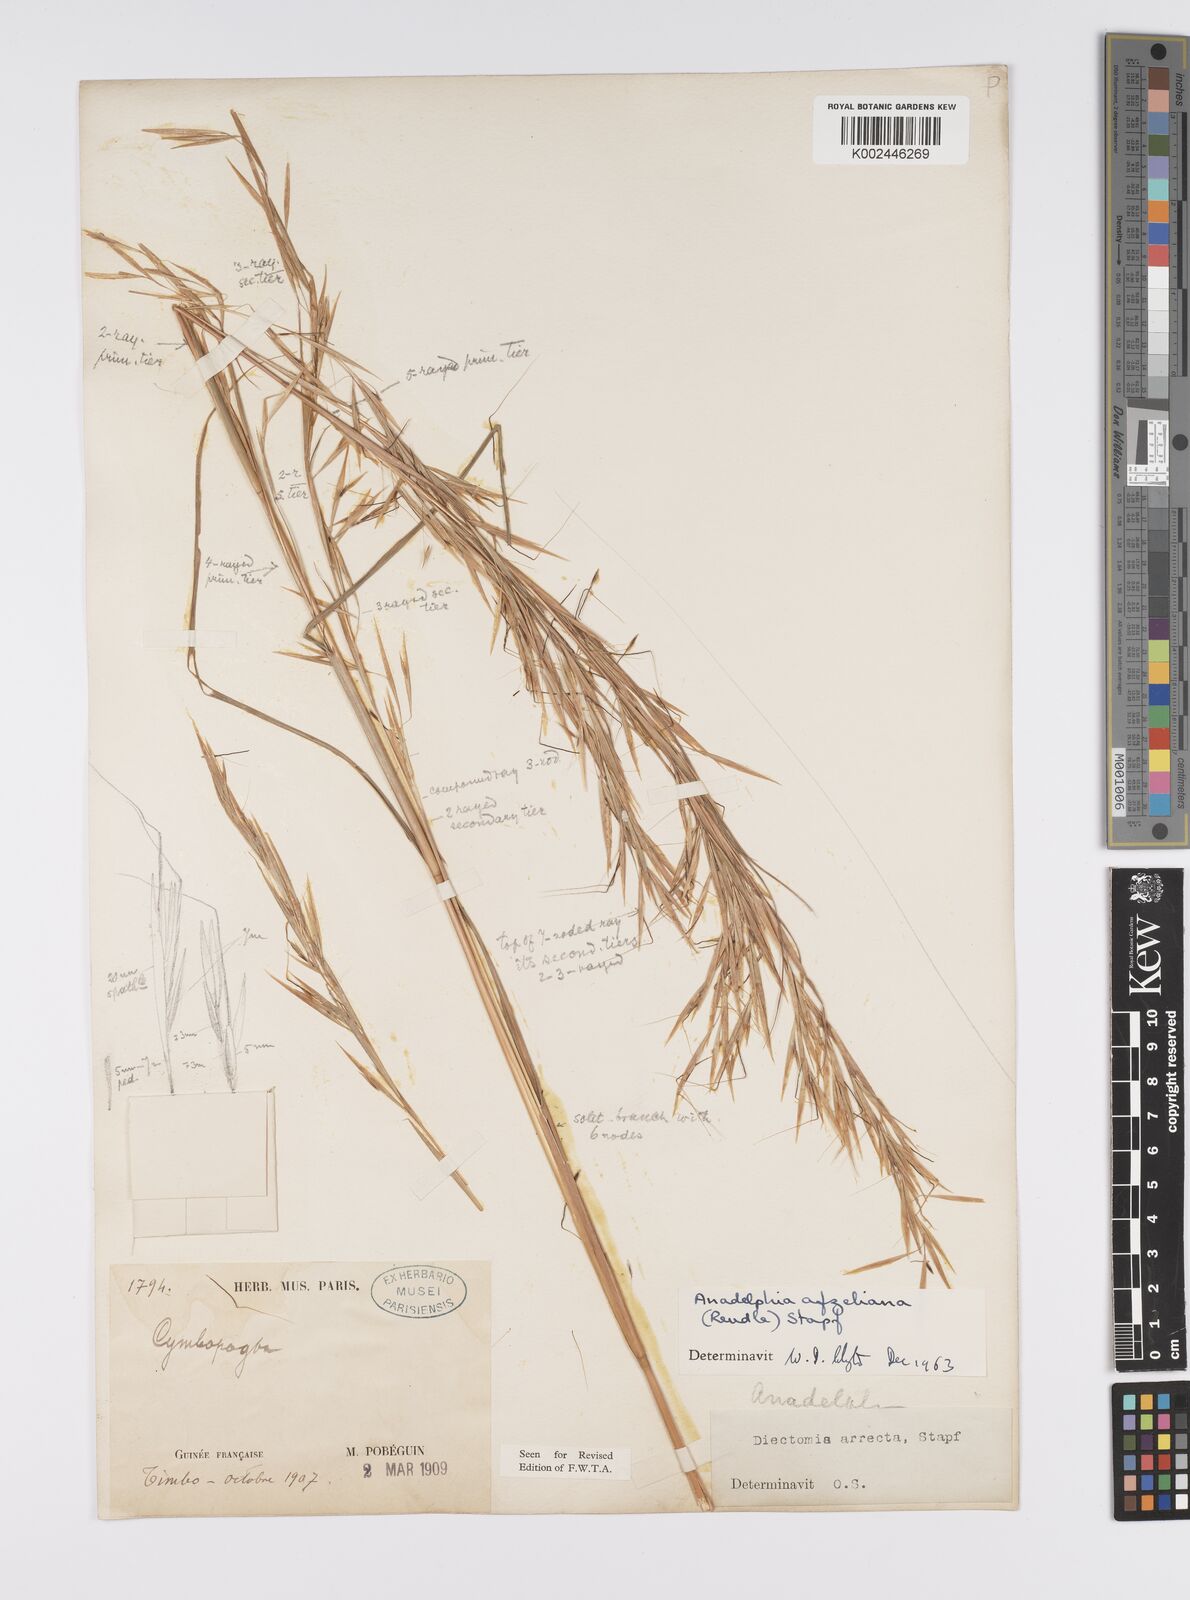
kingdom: Plantae
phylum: Tracheophyta
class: Liliopsida
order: Poales
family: Poaceae
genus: Anadelphia
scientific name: Anadelphia afzeliana
